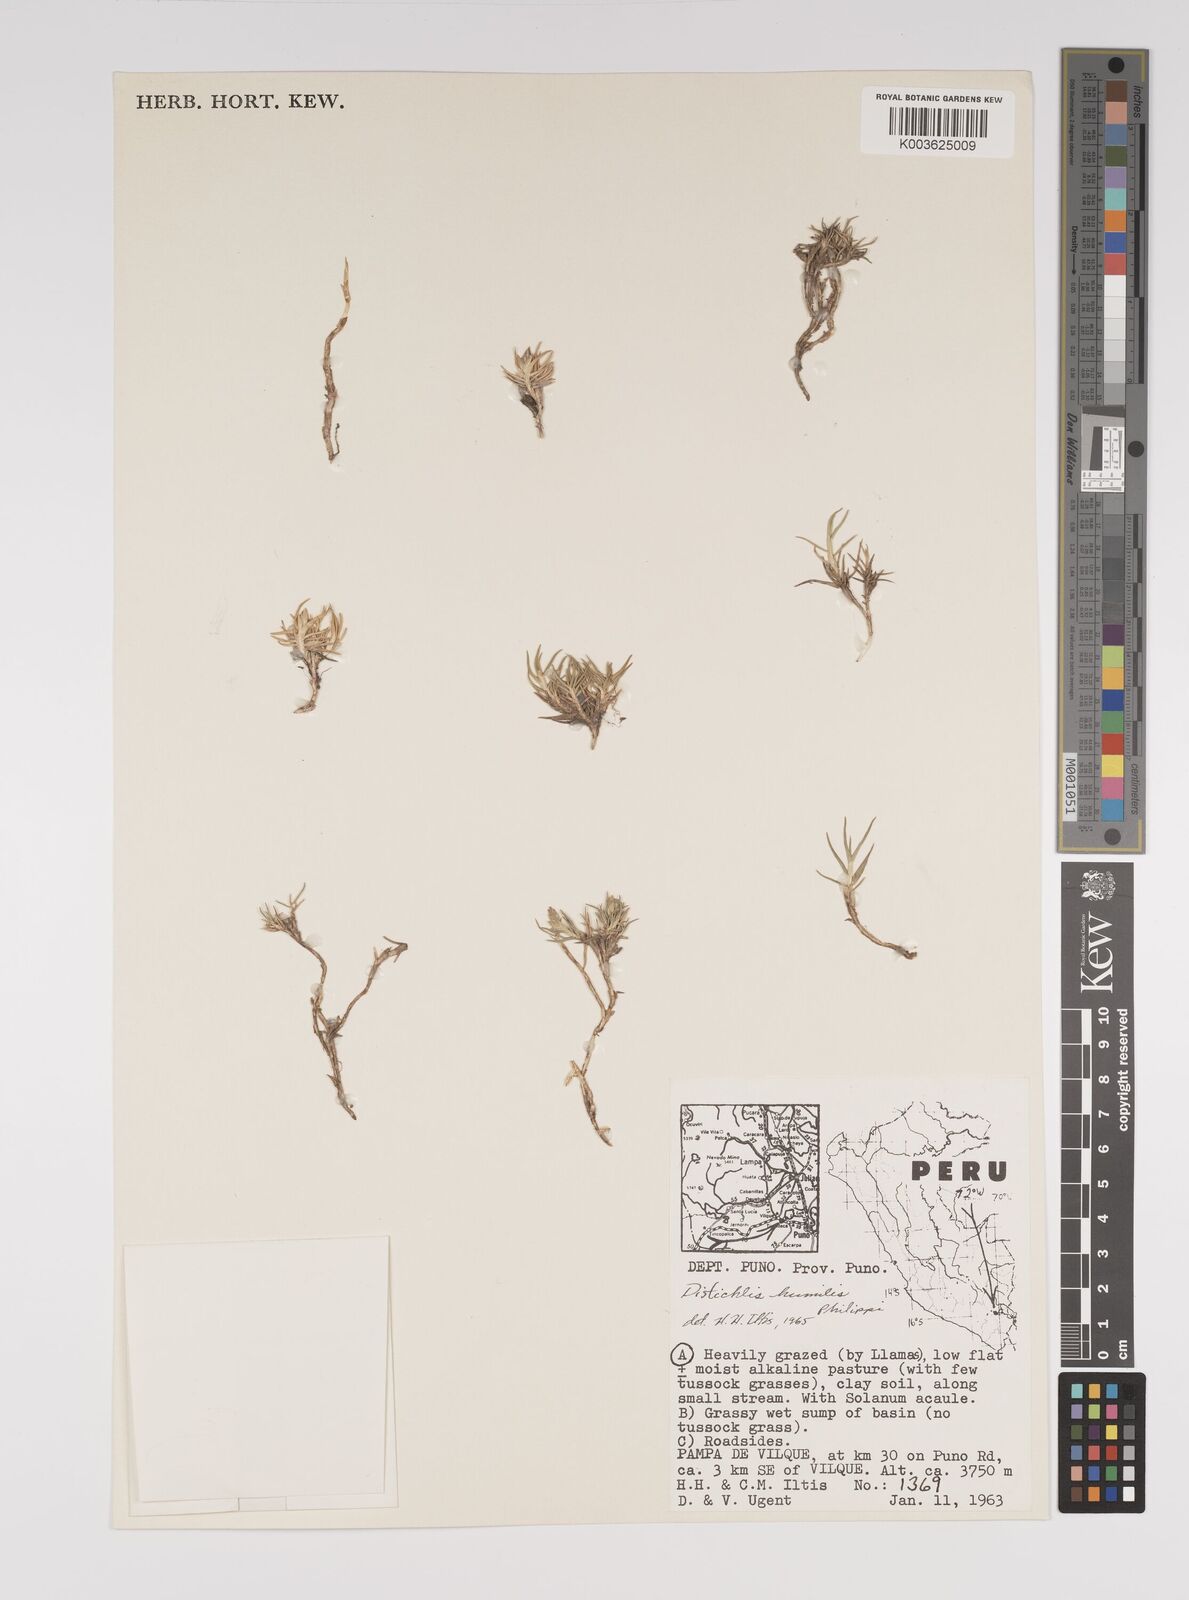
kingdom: Plantae
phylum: Tracheophyta
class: Liliopsida
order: Poales
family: Poaceae
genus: Distichlis
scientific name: Distichlis humilis
